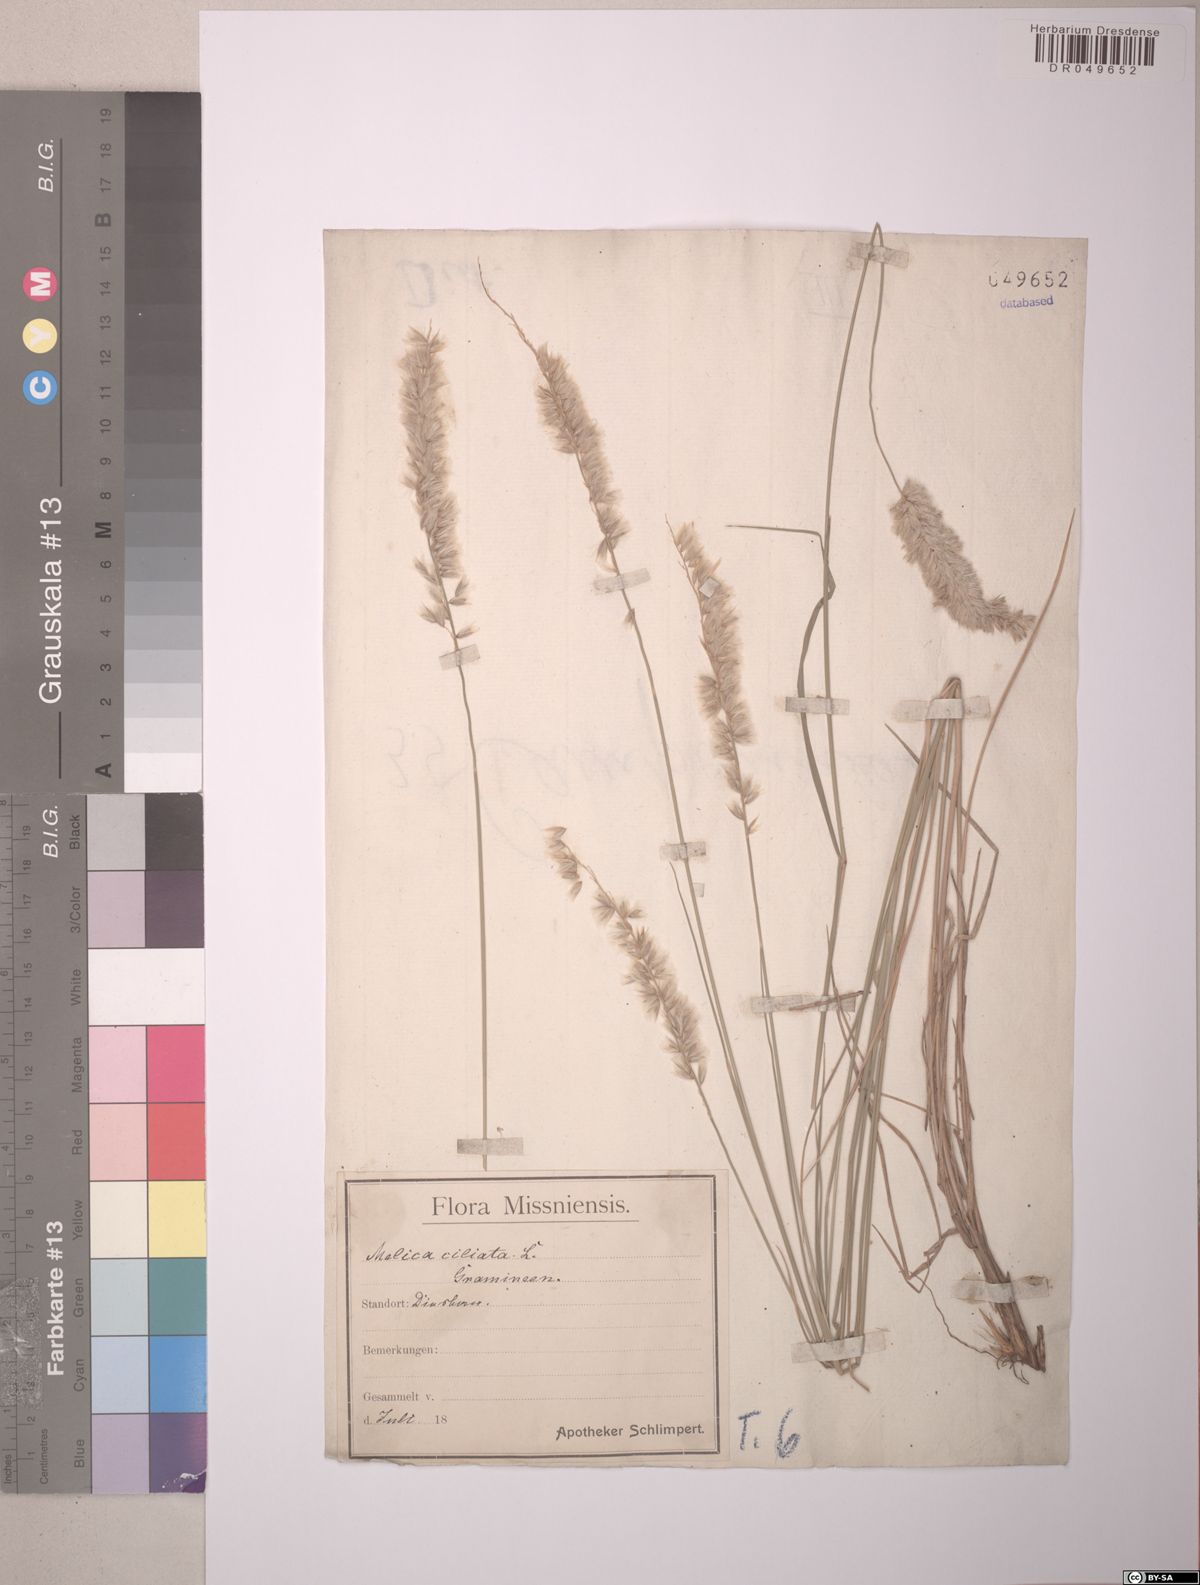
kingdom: Plantae
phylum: Tracheophyta
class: Liliopsida
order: Poales
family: Poaceae
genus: Melica
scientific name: Melica ciliata
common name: Hairy melicgrass
